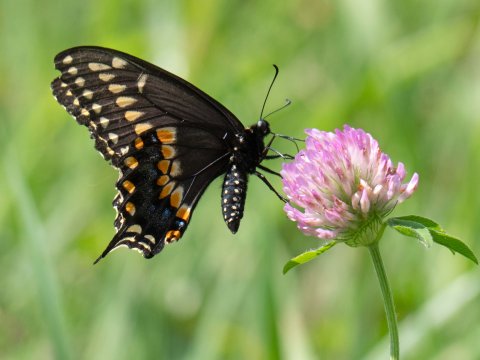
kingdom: Animalia
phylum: Arthropoda
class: Insecta
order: Lepidoptera
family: Papilionidae
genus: Papilio
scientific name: Papilio polyxenes
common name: Black Swallowtail
